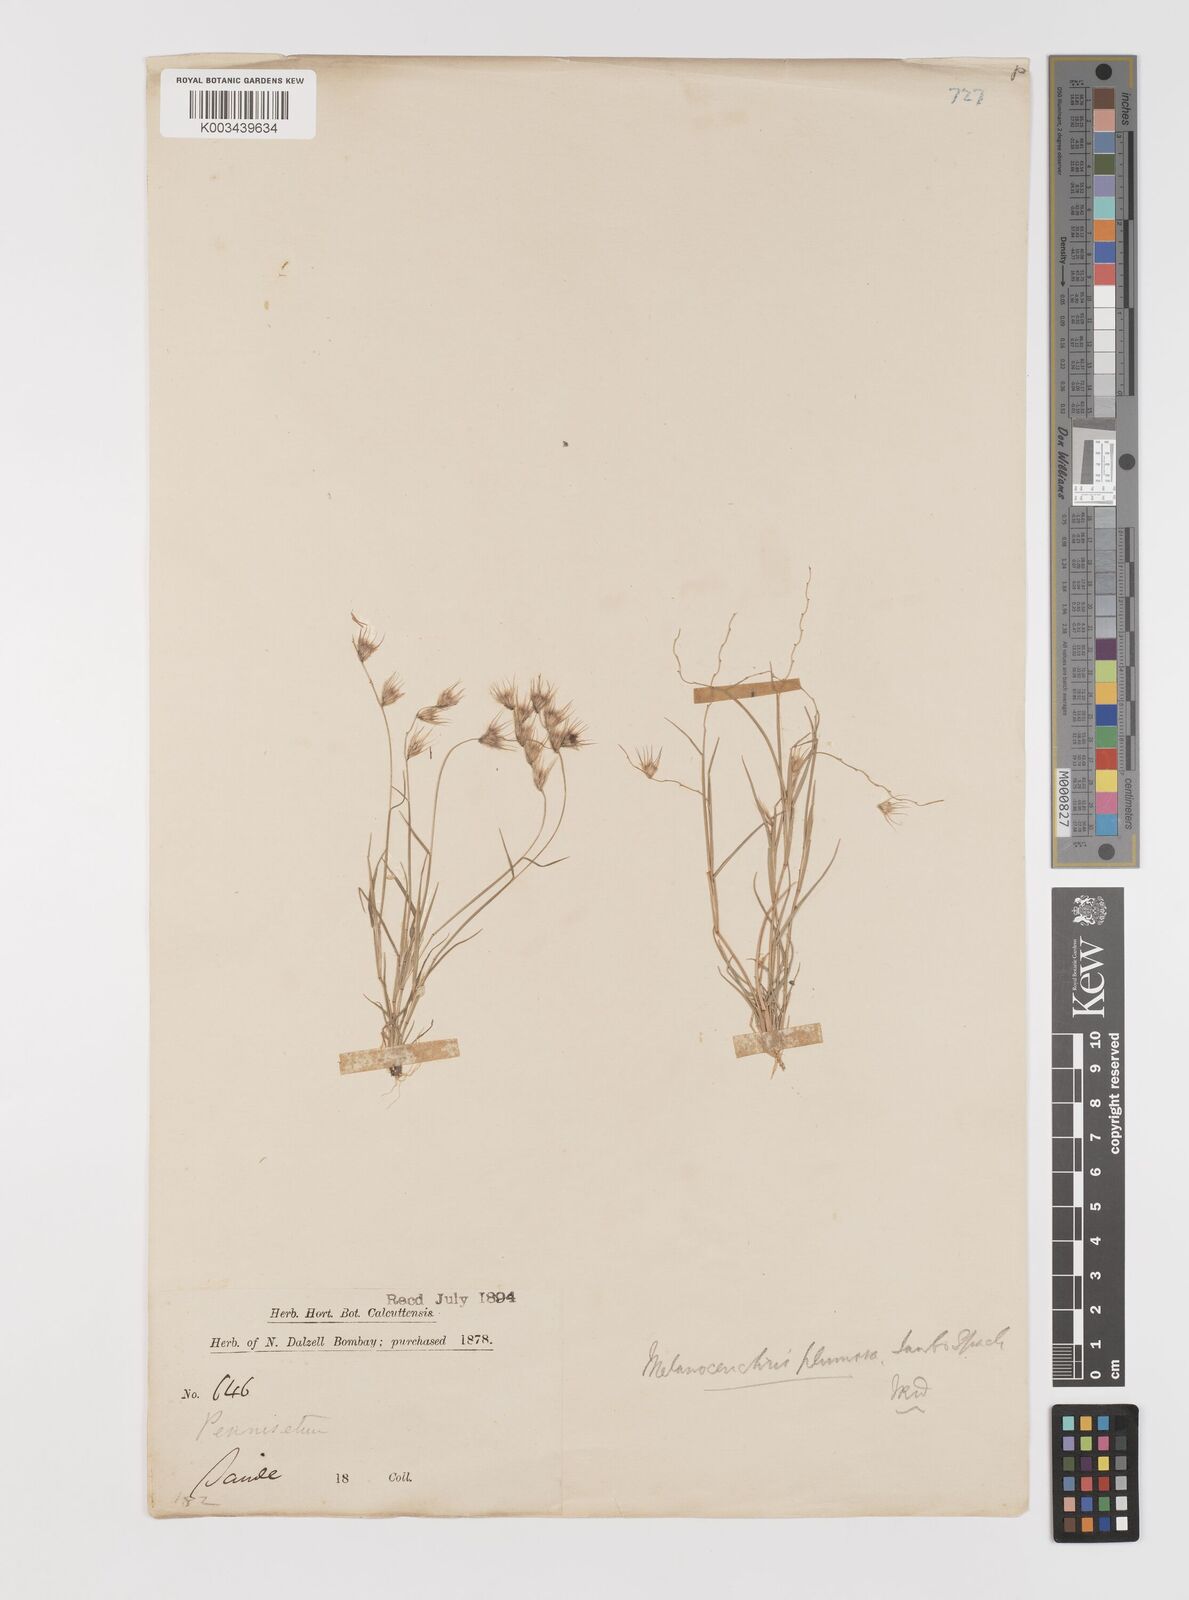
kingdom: Plantae
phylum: Tracheophyta
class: Liliopsida
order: Poales
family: Poaceae
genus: Melanocenchris
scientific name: Melanocenchris abyssinica
